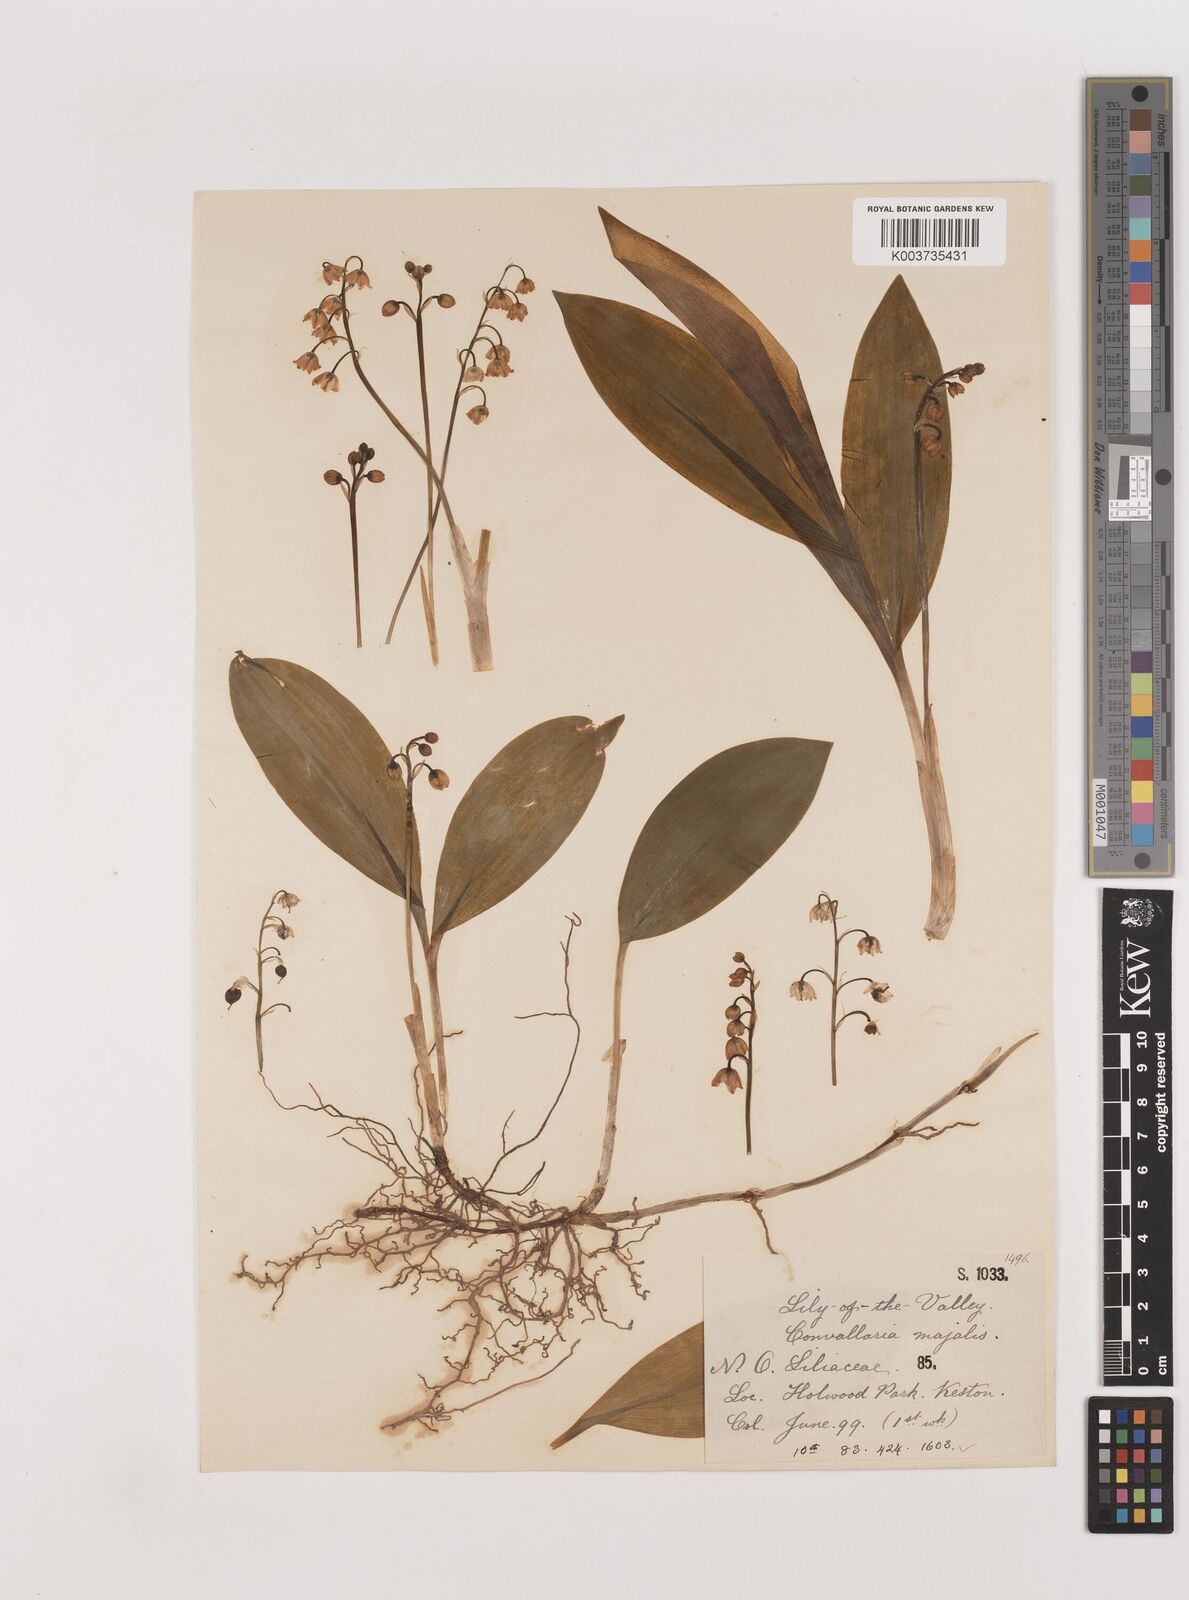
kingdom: Plantae
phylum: Tracheophyta
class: Liliopsida
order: Asparagales
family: Asparagaceae
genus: Convallaria
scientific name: Convallaria majalis
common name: Lily-of-the-valley
